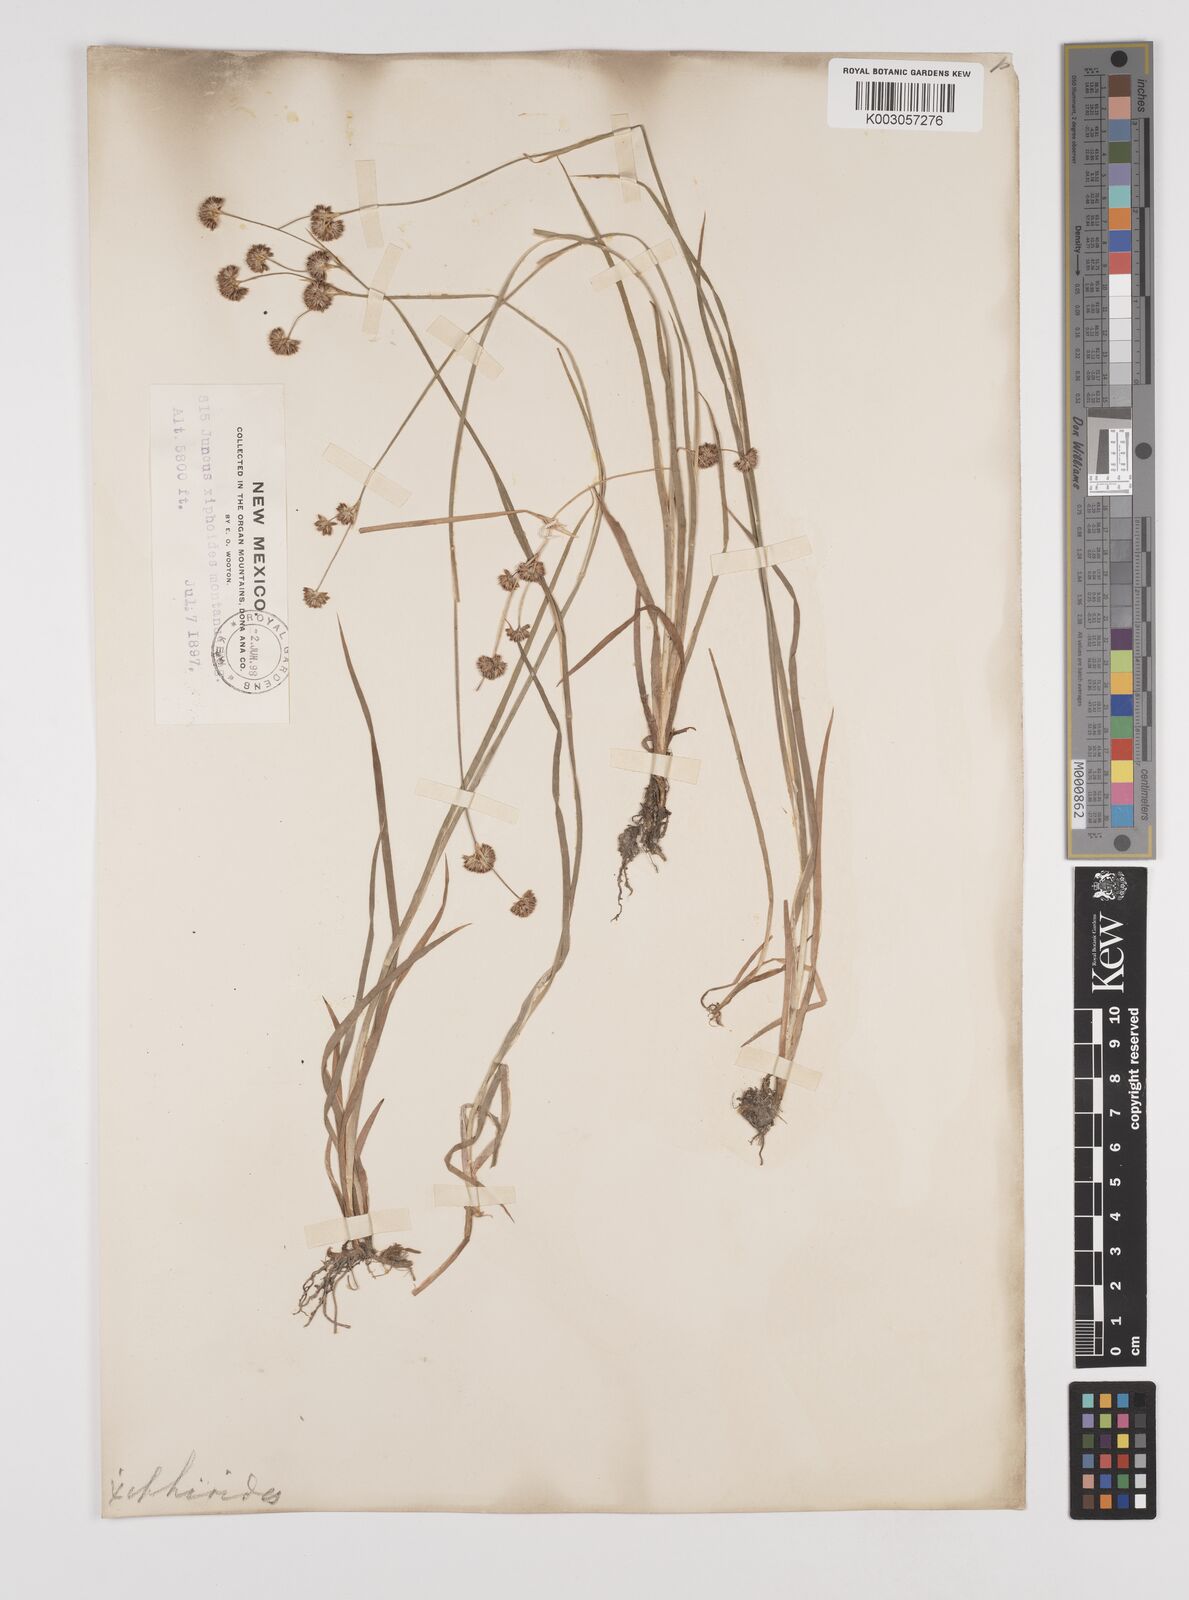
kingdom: Plantae
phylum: Tracheophyta
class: Liliopsida
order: Poales
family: Juncaceae
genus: Juncus
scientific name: Juncus xiphioides
